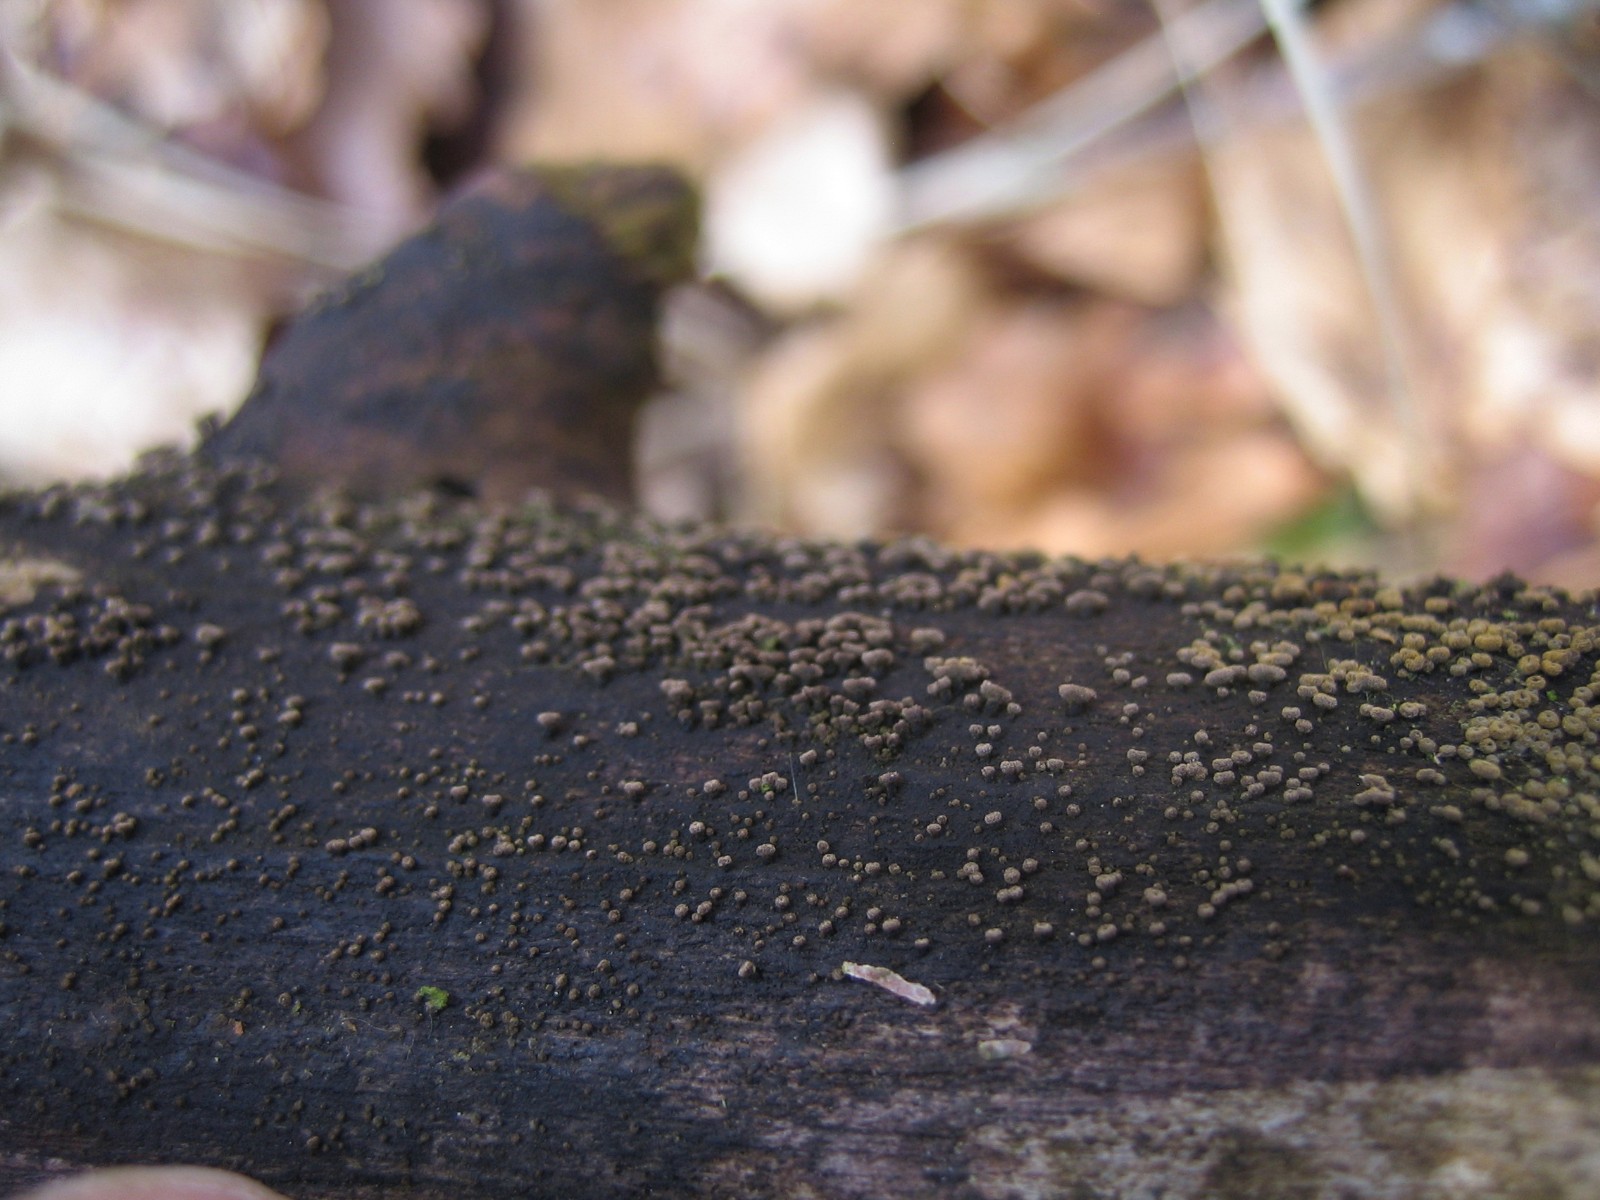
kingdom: Fungi
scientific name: Fungi
